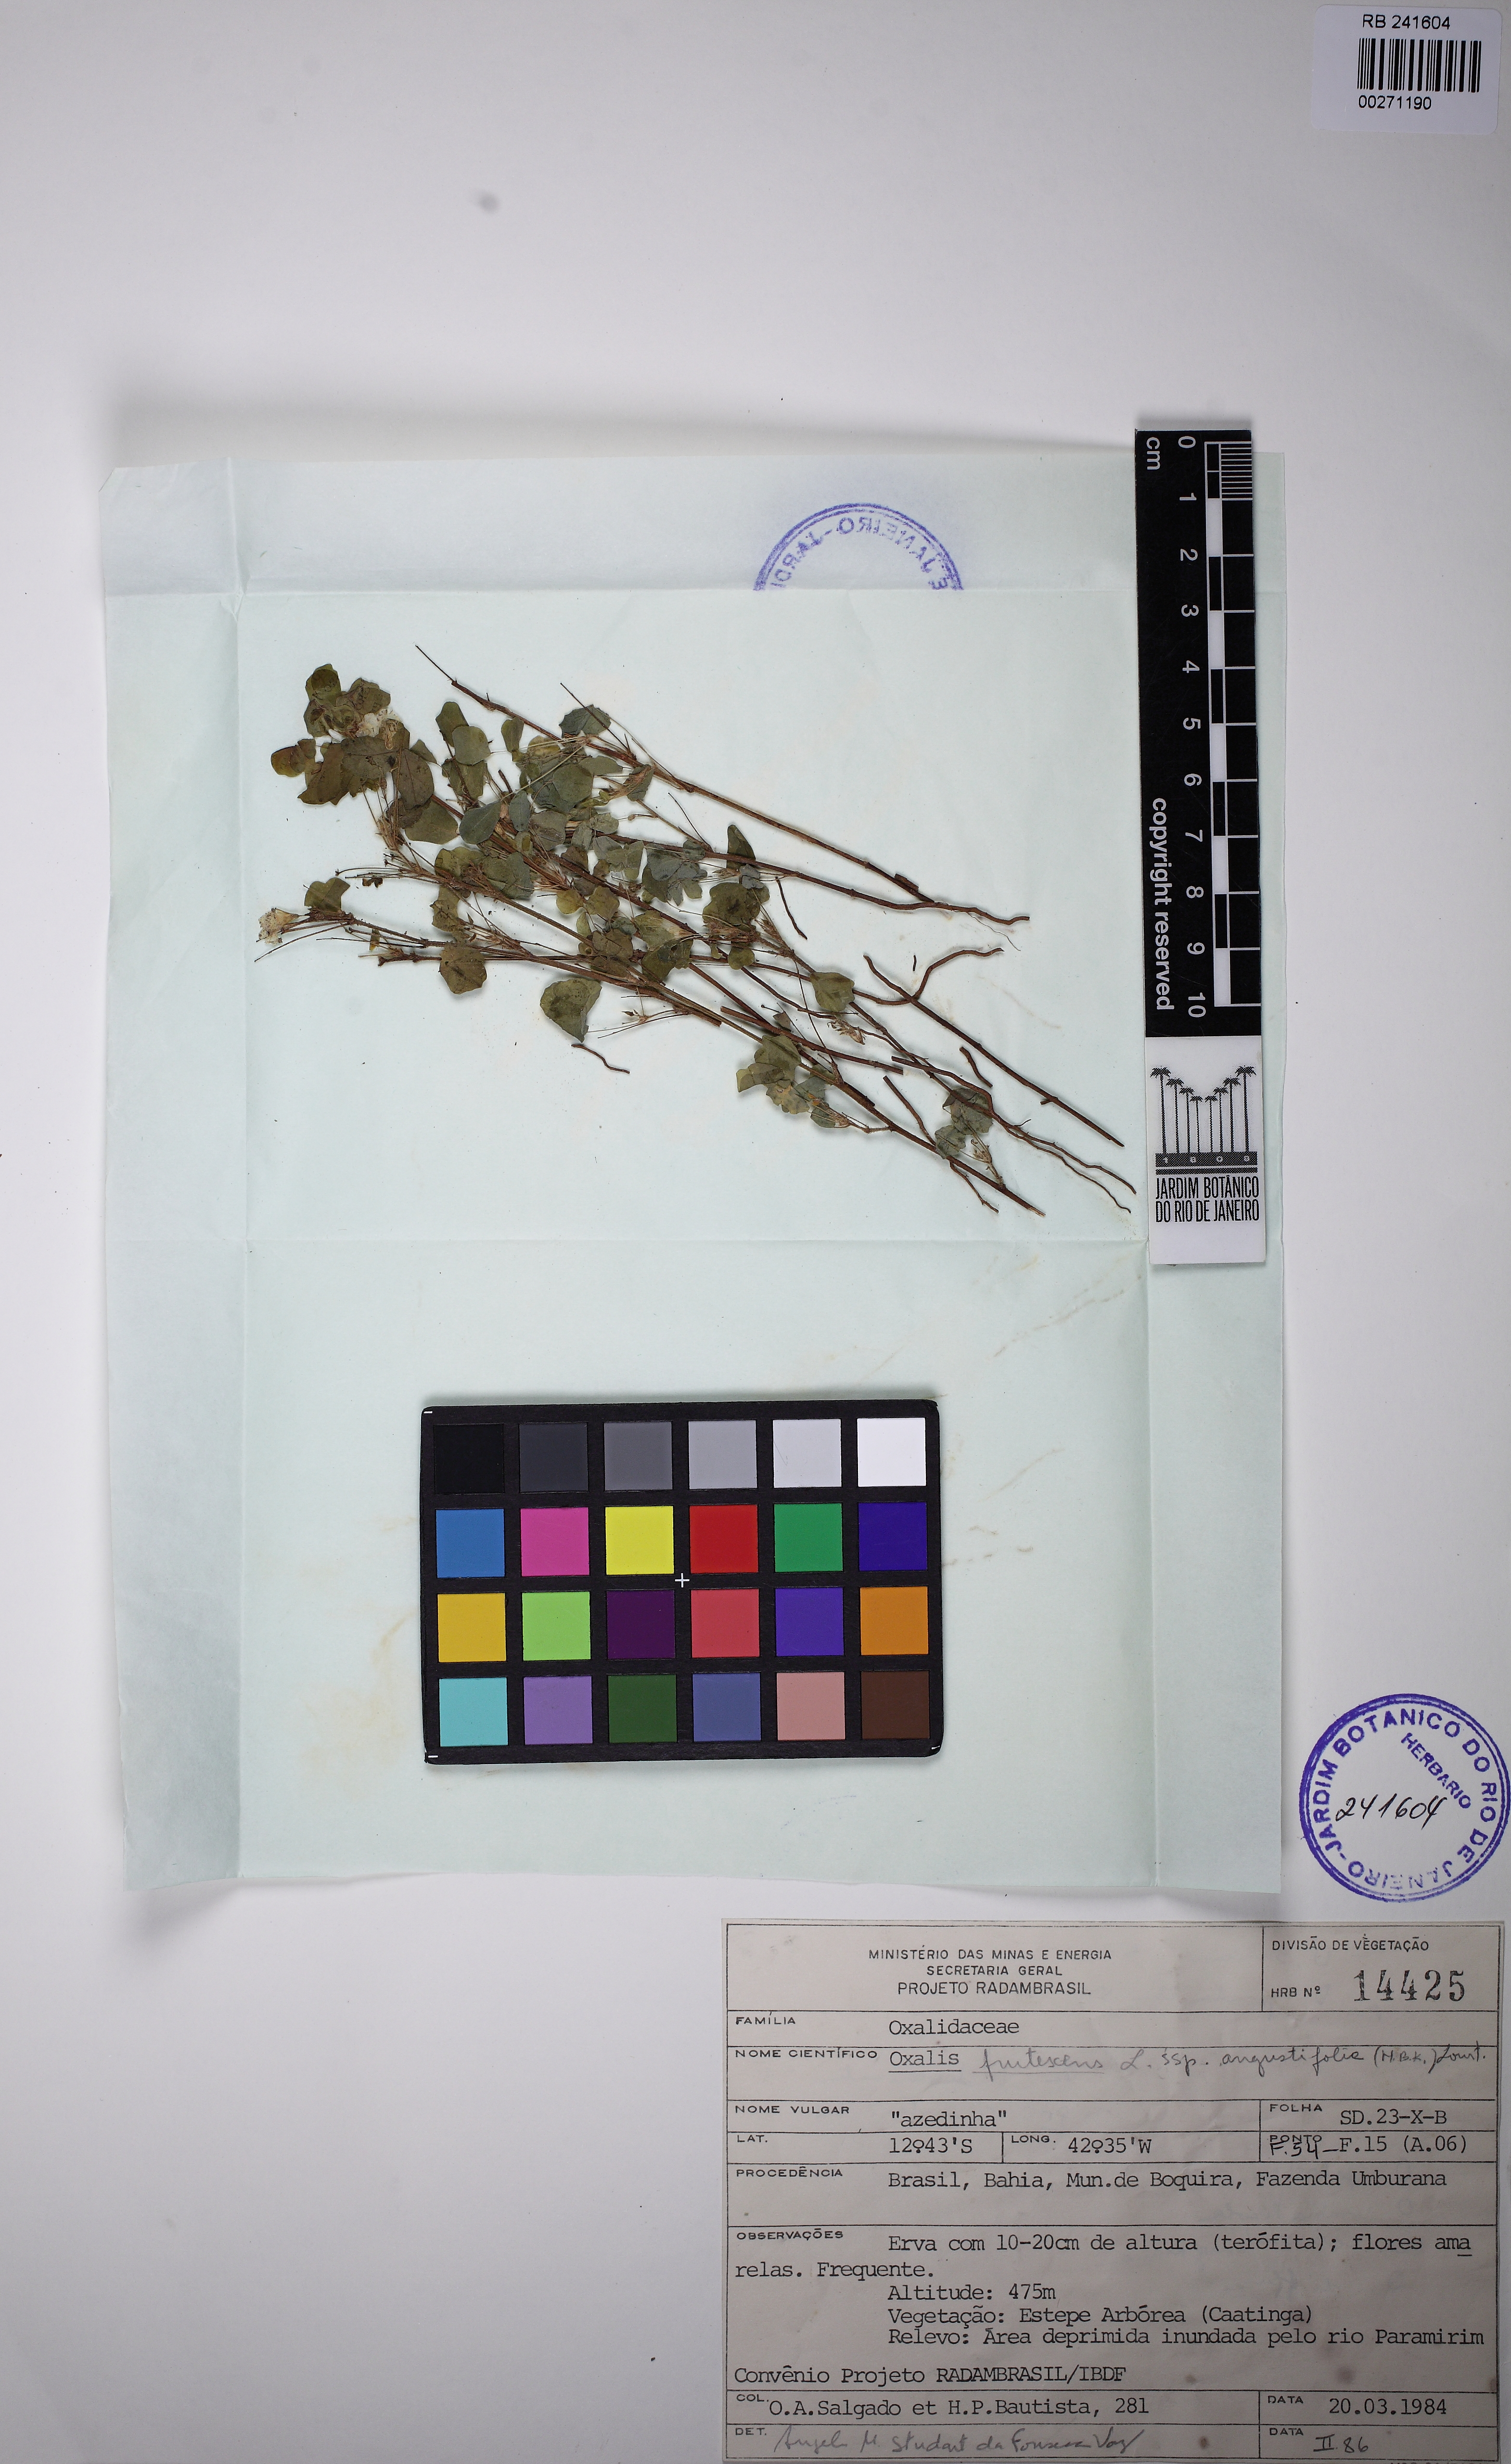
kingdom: Plantae
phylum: Tracheophyta
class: Magnoliopsida
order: Oxalidales
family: Oxalidaceae
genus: Oxalis
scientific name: Oxalis frutescens
